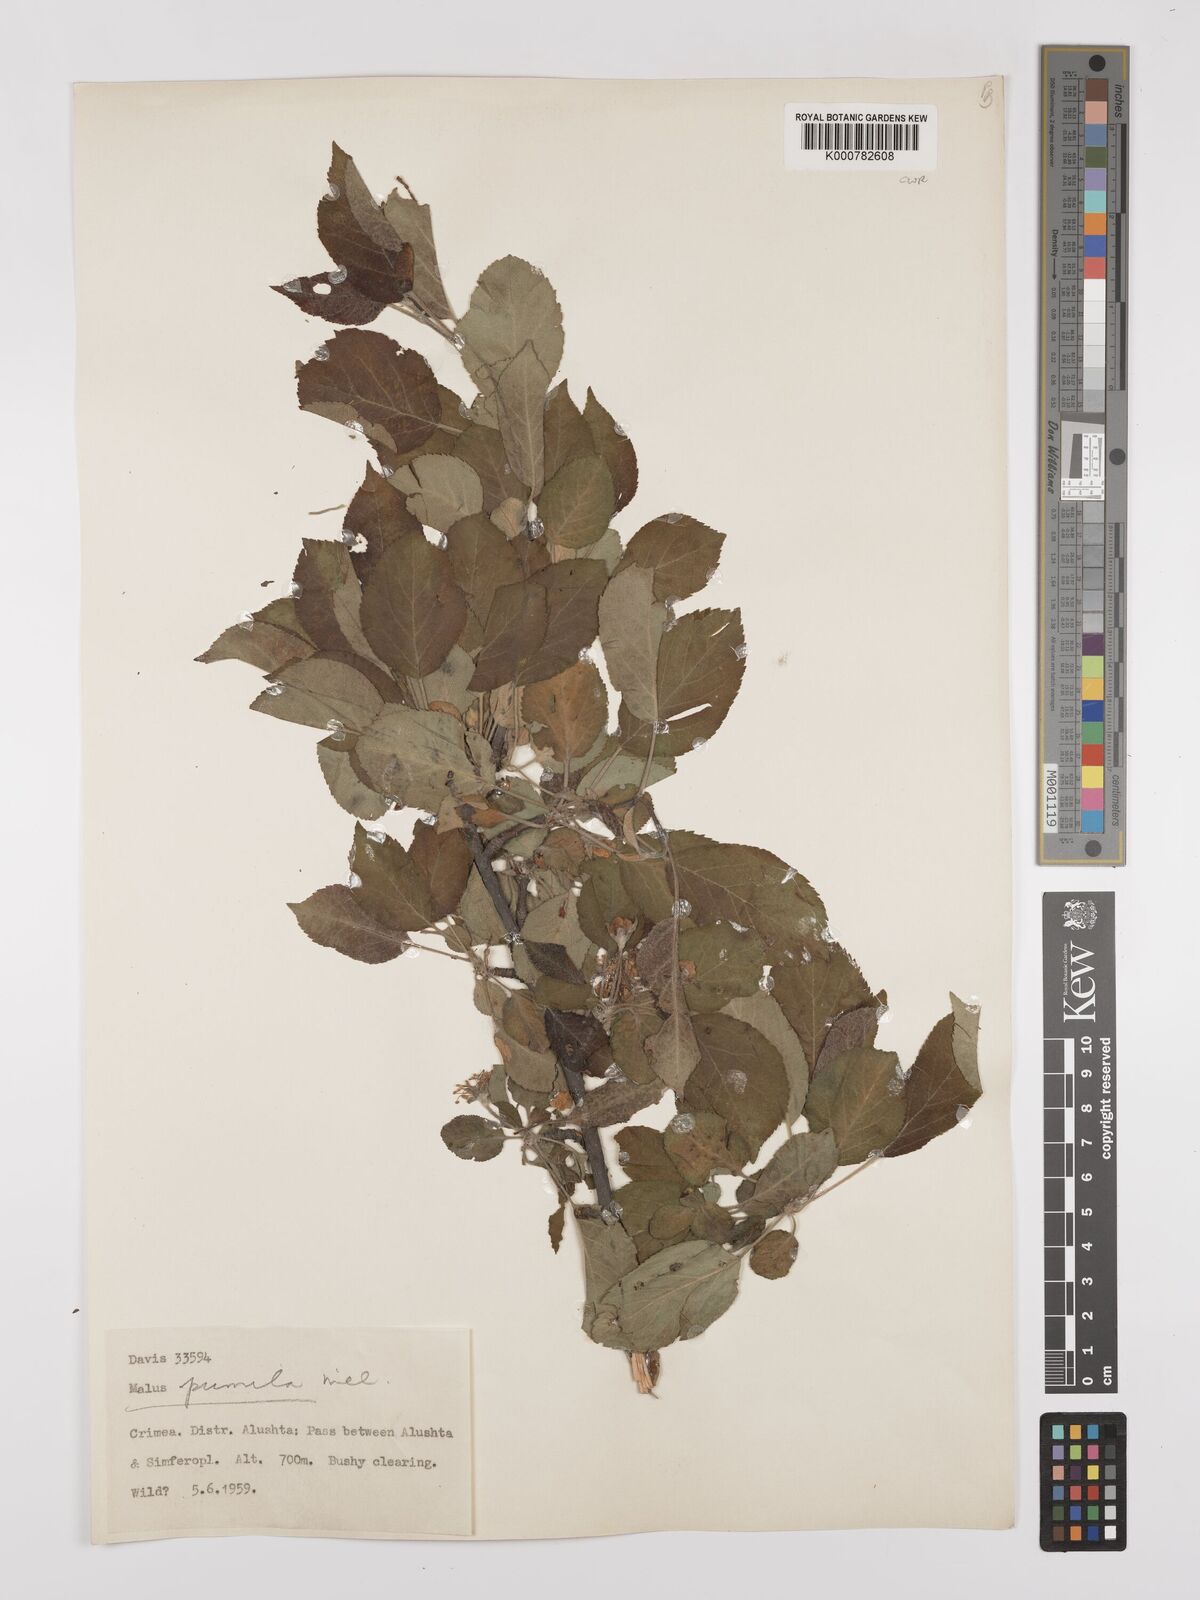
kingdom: Plantae
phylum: Tracheophyta
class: Magnoliopsida
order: Rosales
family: Rosaceae
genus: Malus
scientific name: Malus domestica
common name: Apple
